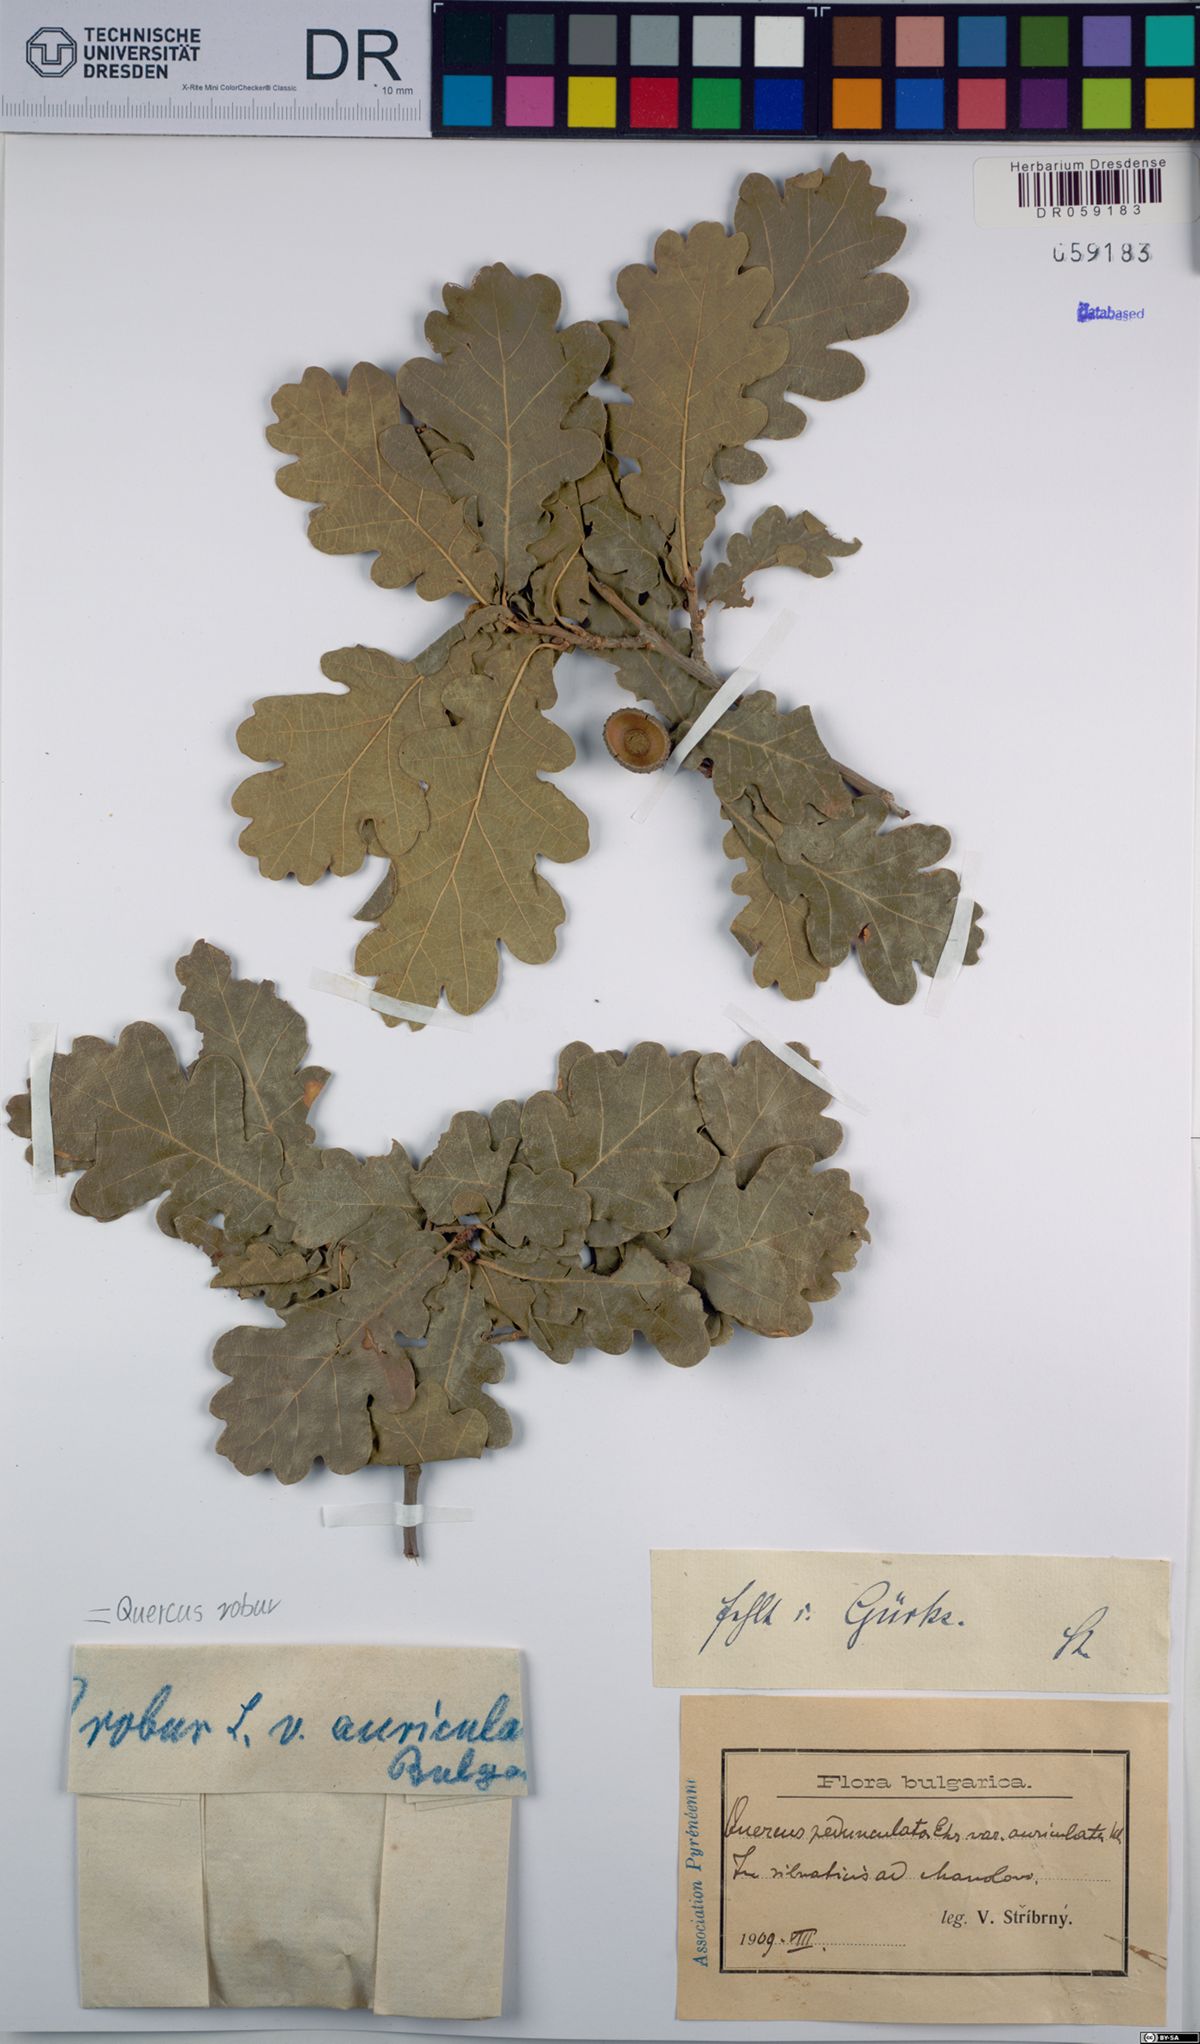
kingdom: Plantae
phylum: Tracheophyta
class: Magnoliopsida
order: Fagales
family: Fagaceae
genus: Quercus
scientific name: Quercus robur
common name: Pedunculate oak
